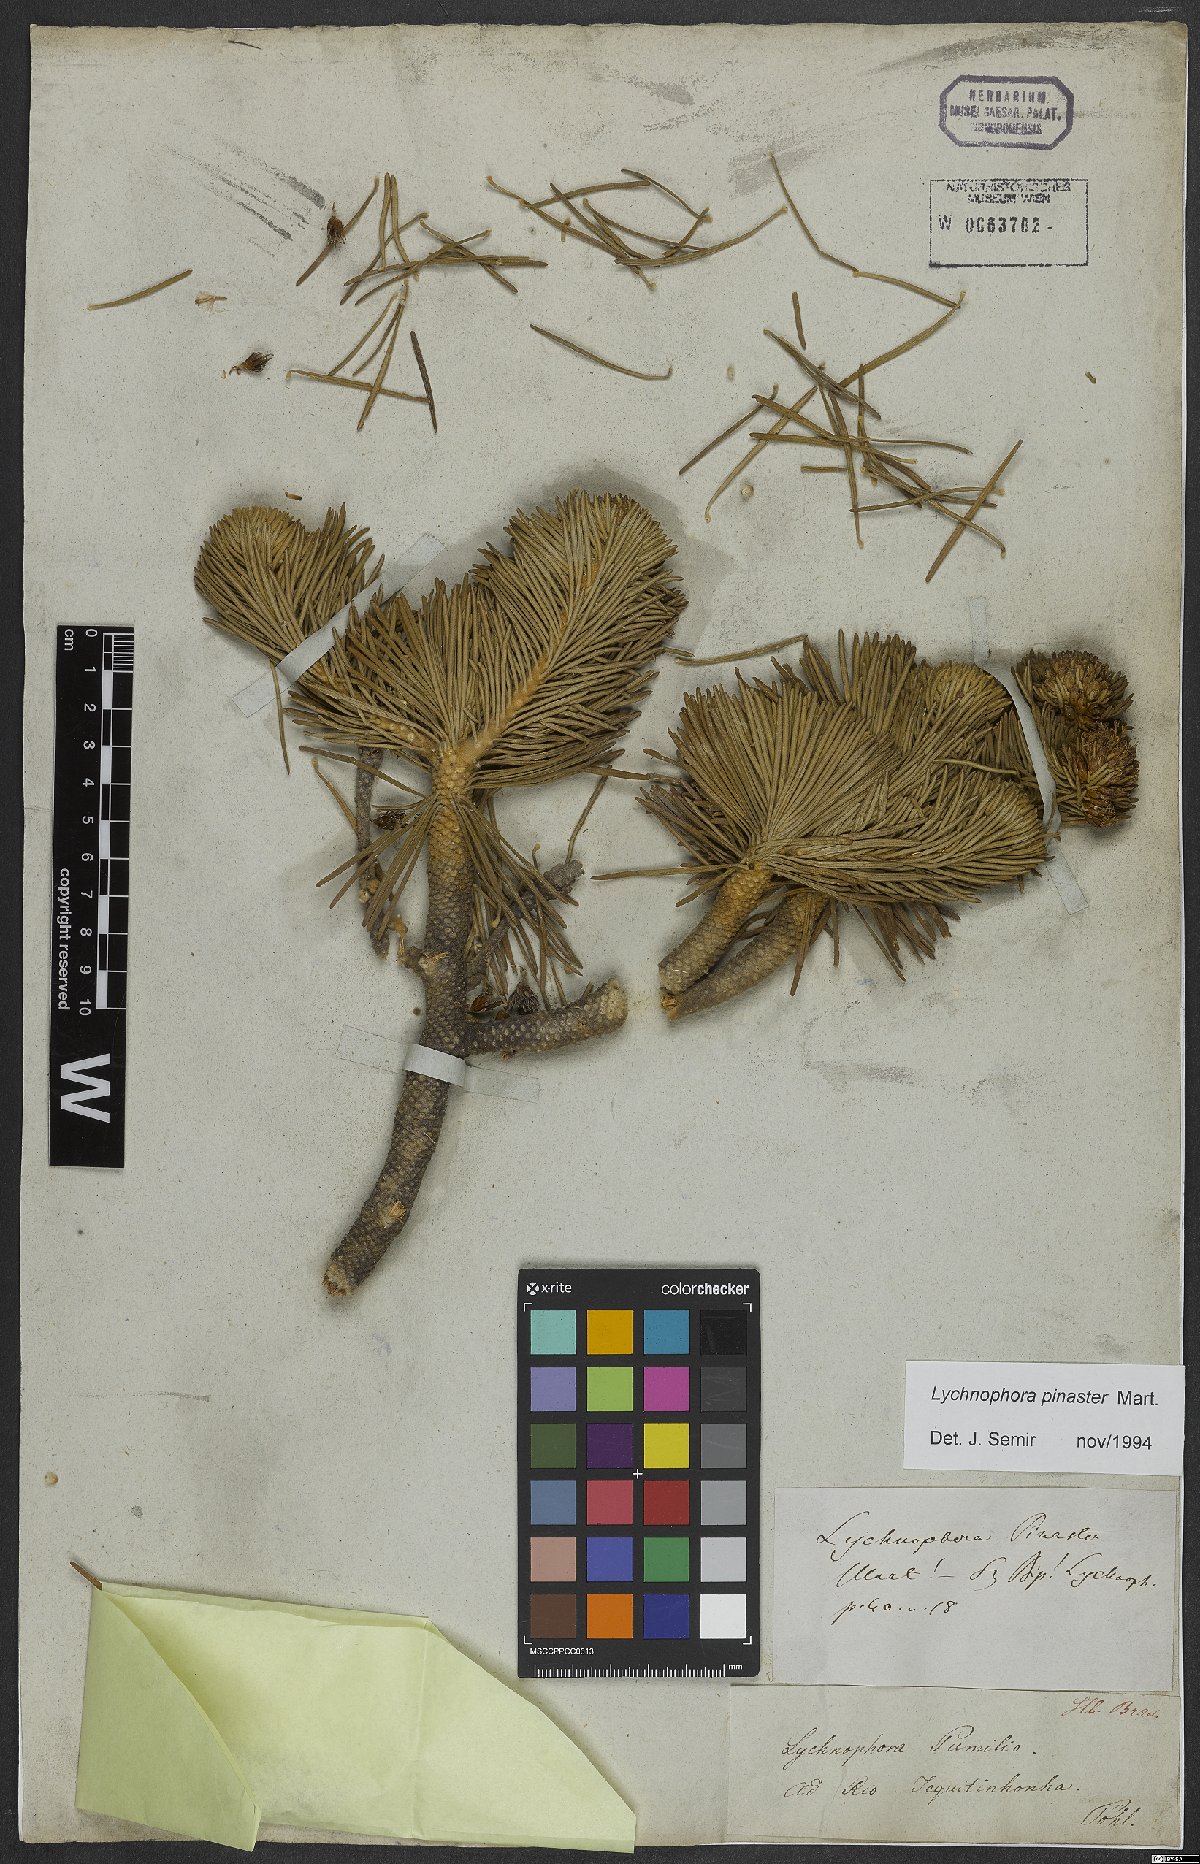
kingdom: Plantae
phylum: Tracheophyta
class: Magnoliopsida
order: Asterales
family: Asteraceae
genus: Lychnophora
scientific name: Lychnophora pinaster
